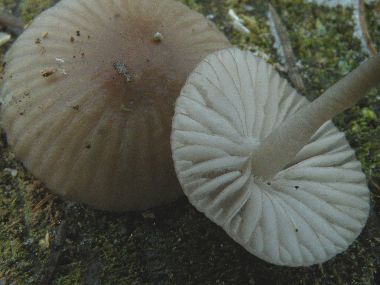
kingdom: Fungi
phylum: Basidiomycota
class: Agaricomycetes
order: Agaricales
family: Mycenaceae
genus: Mycena
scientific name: Mycena rubromarginata
